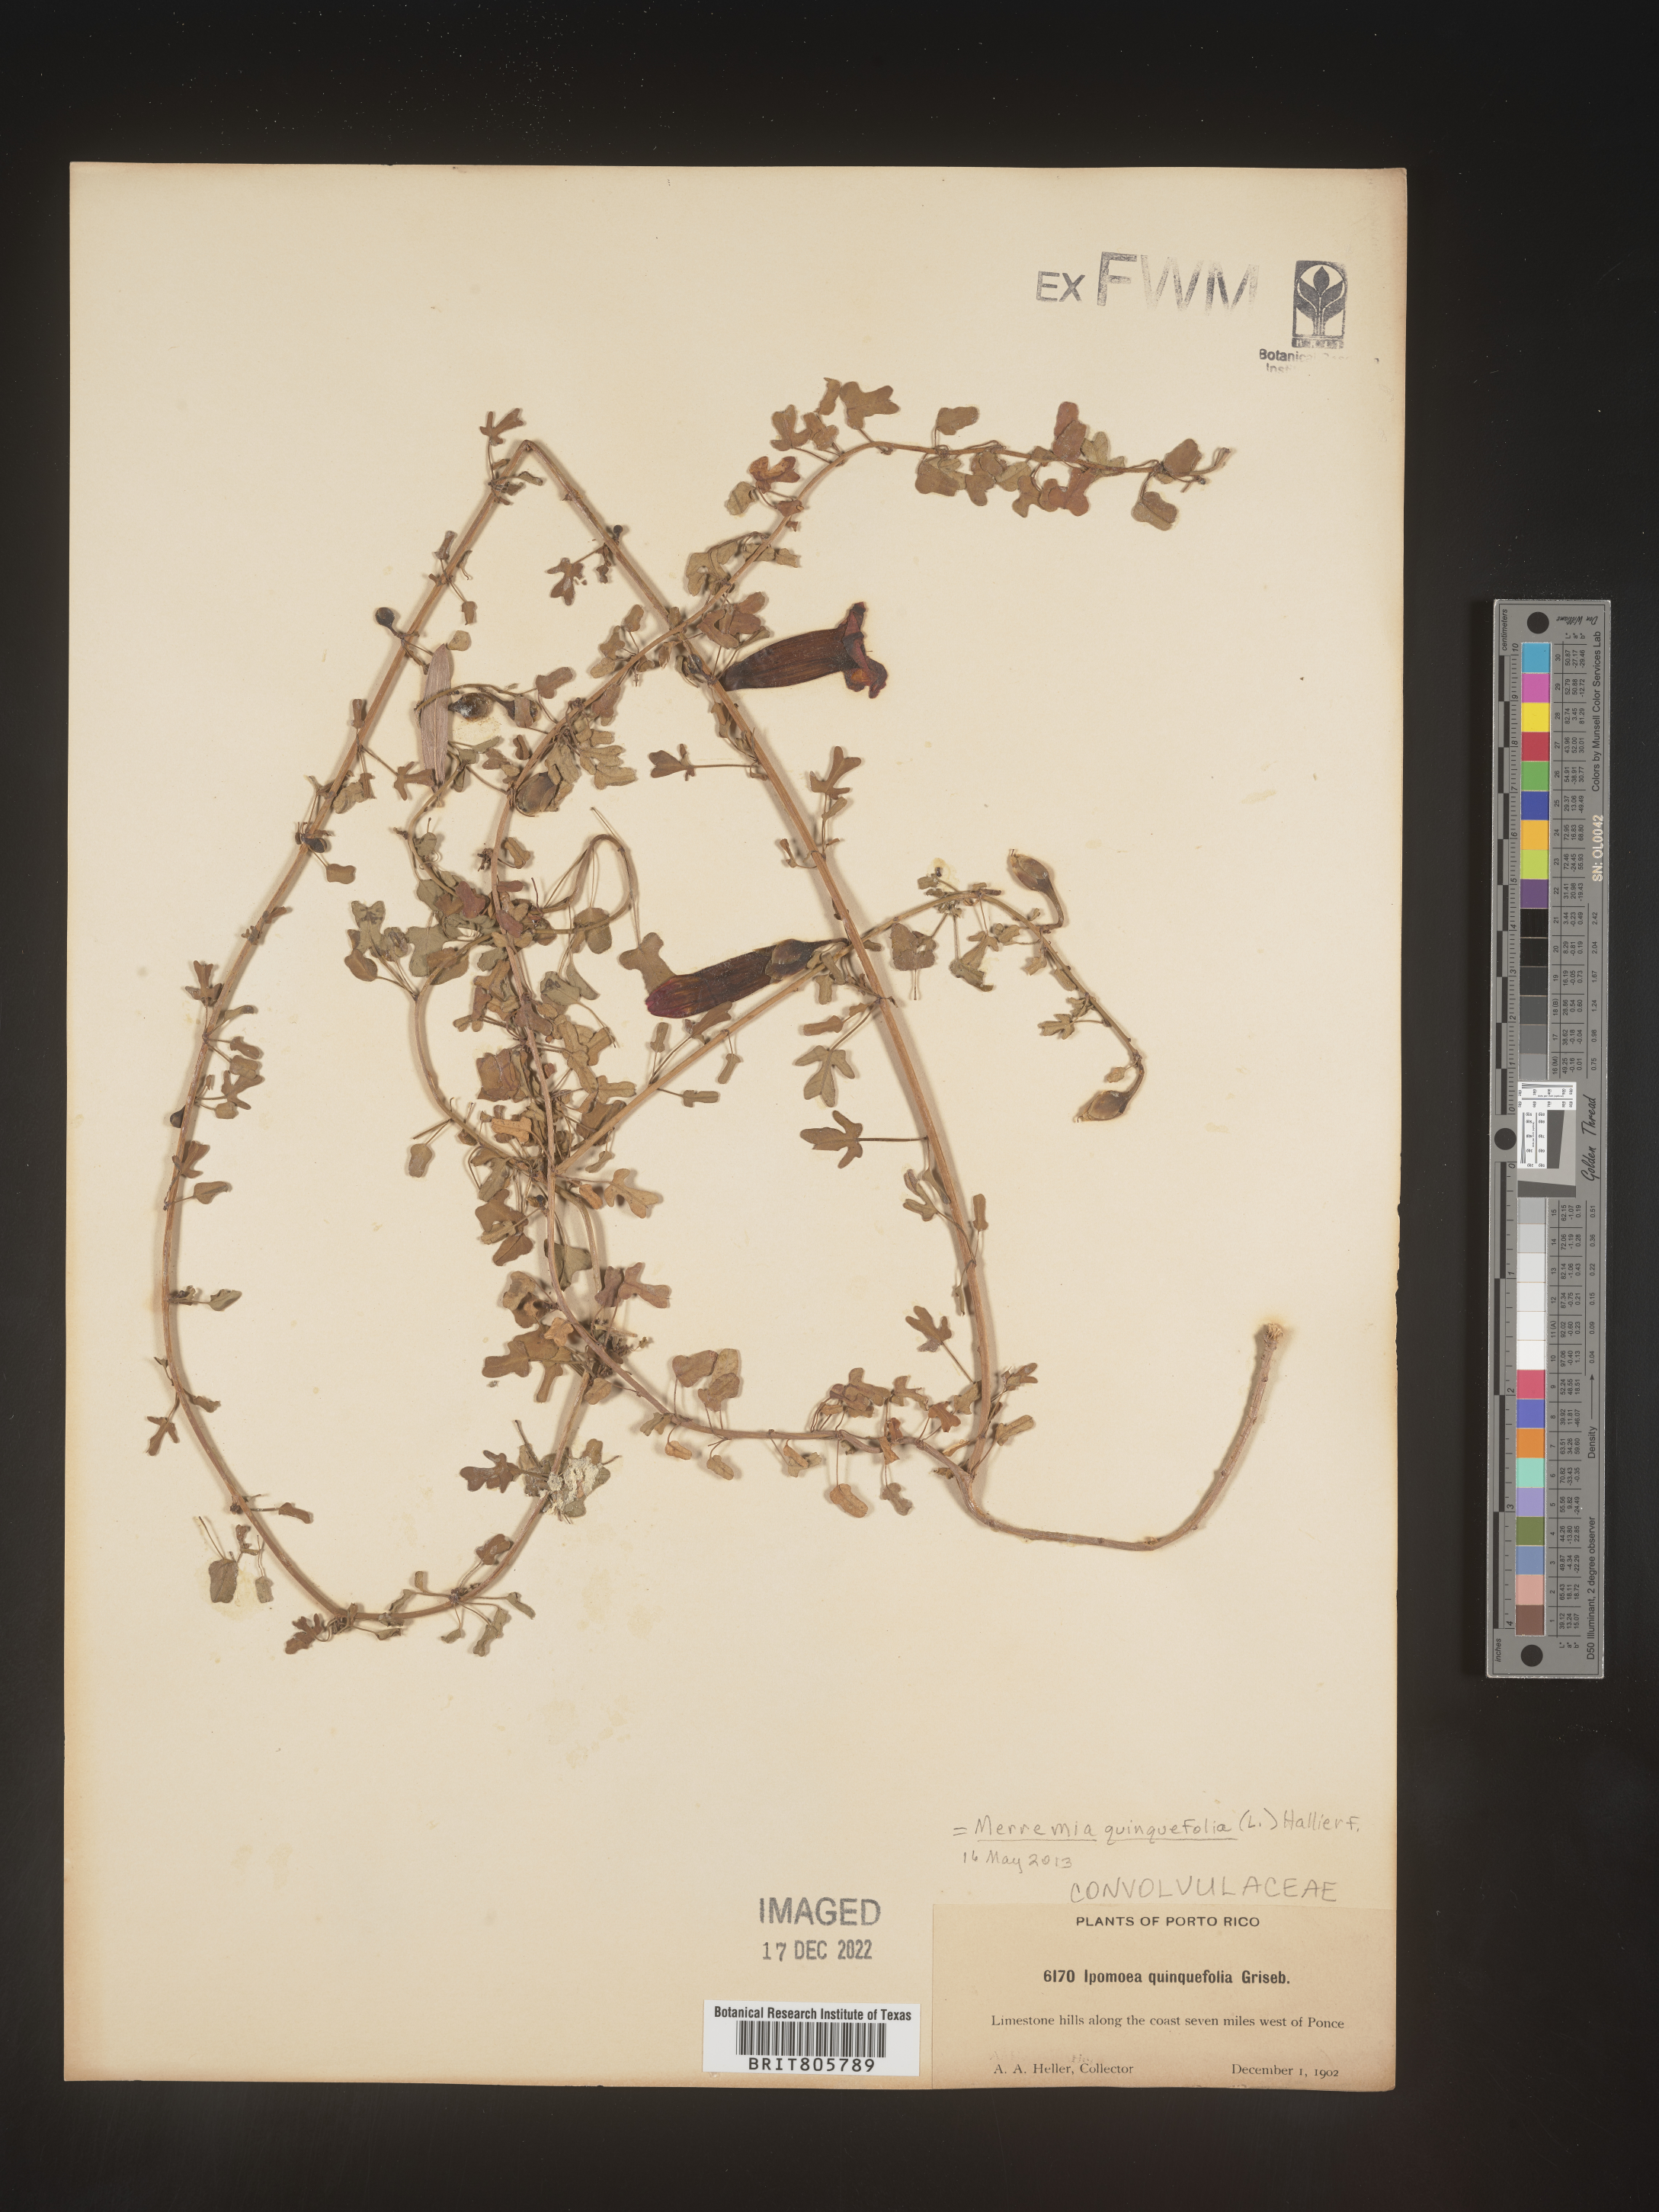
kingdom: Plantae
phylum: Tracheophyta
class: Magnoliopsida
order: Solanales
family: Convolvulaceae
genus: Merremia
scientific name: Merremia
